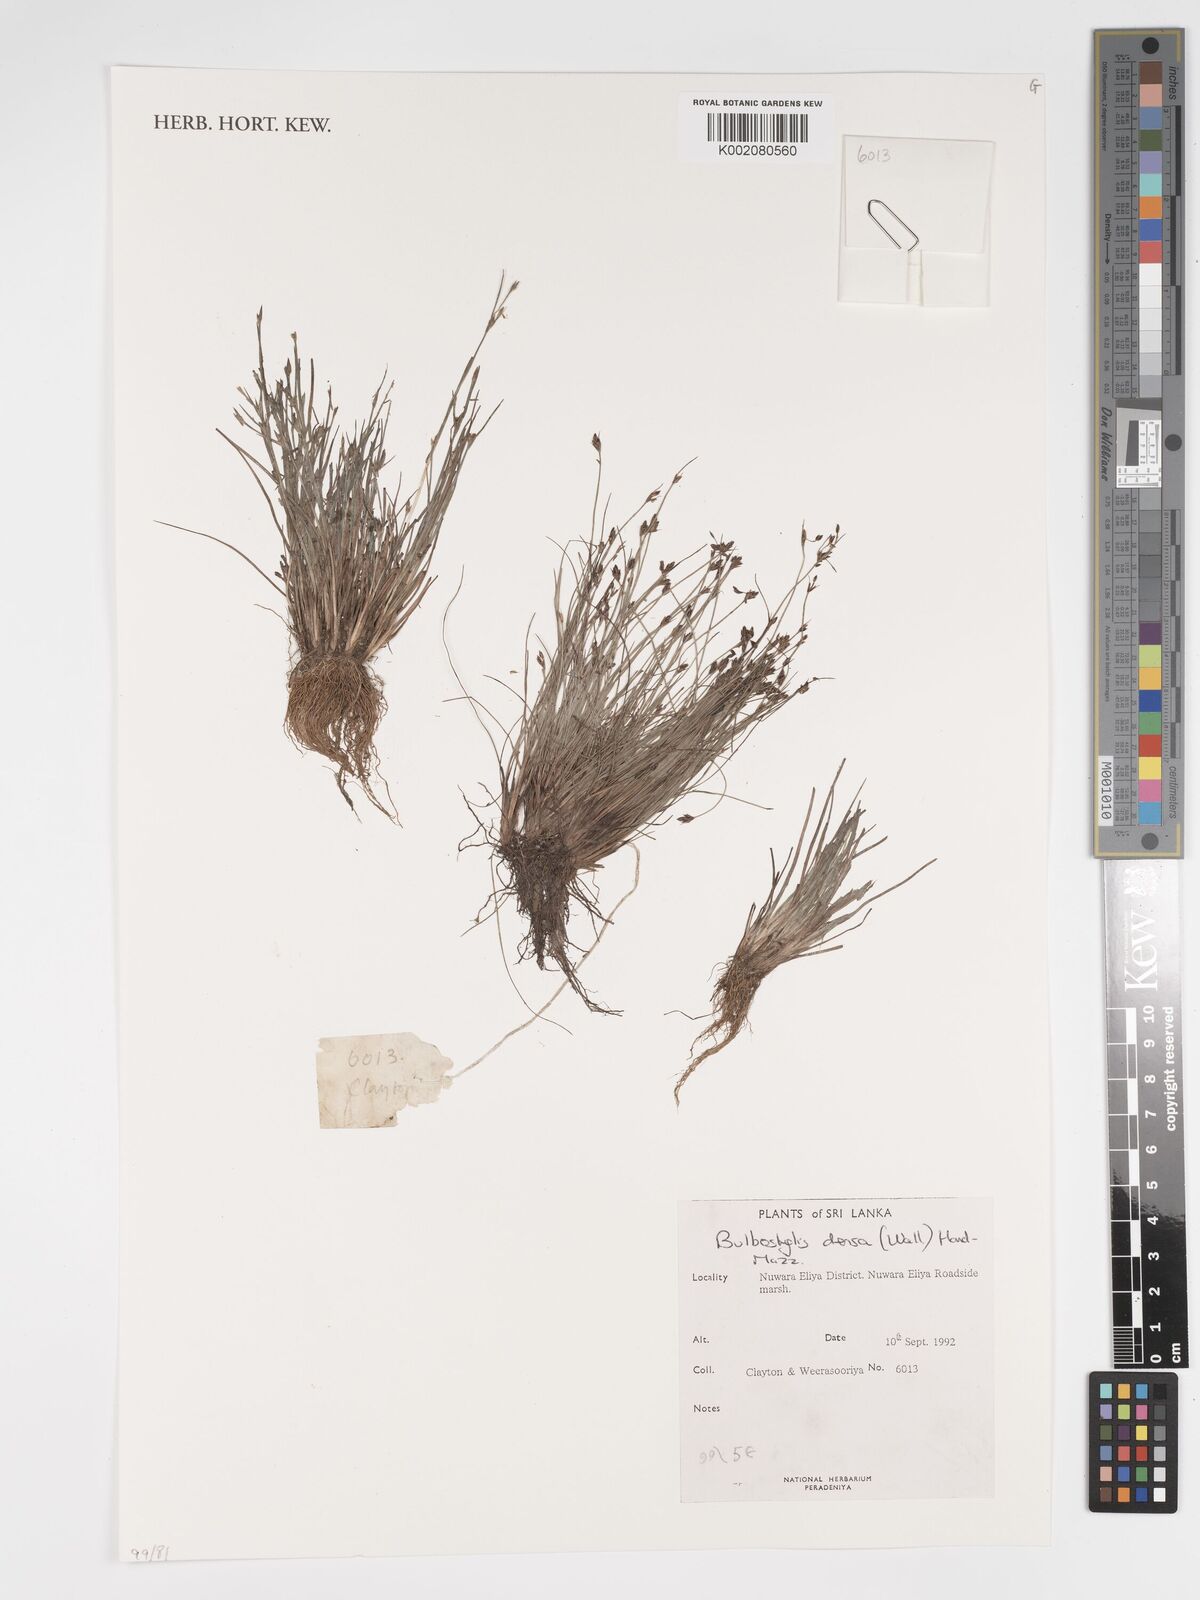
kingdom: Plantae
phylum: Tracheophyta
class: Liliopsida
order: Poales
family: Cyperaceae
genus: Bulbostylis
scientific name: Bulbostylis densa
